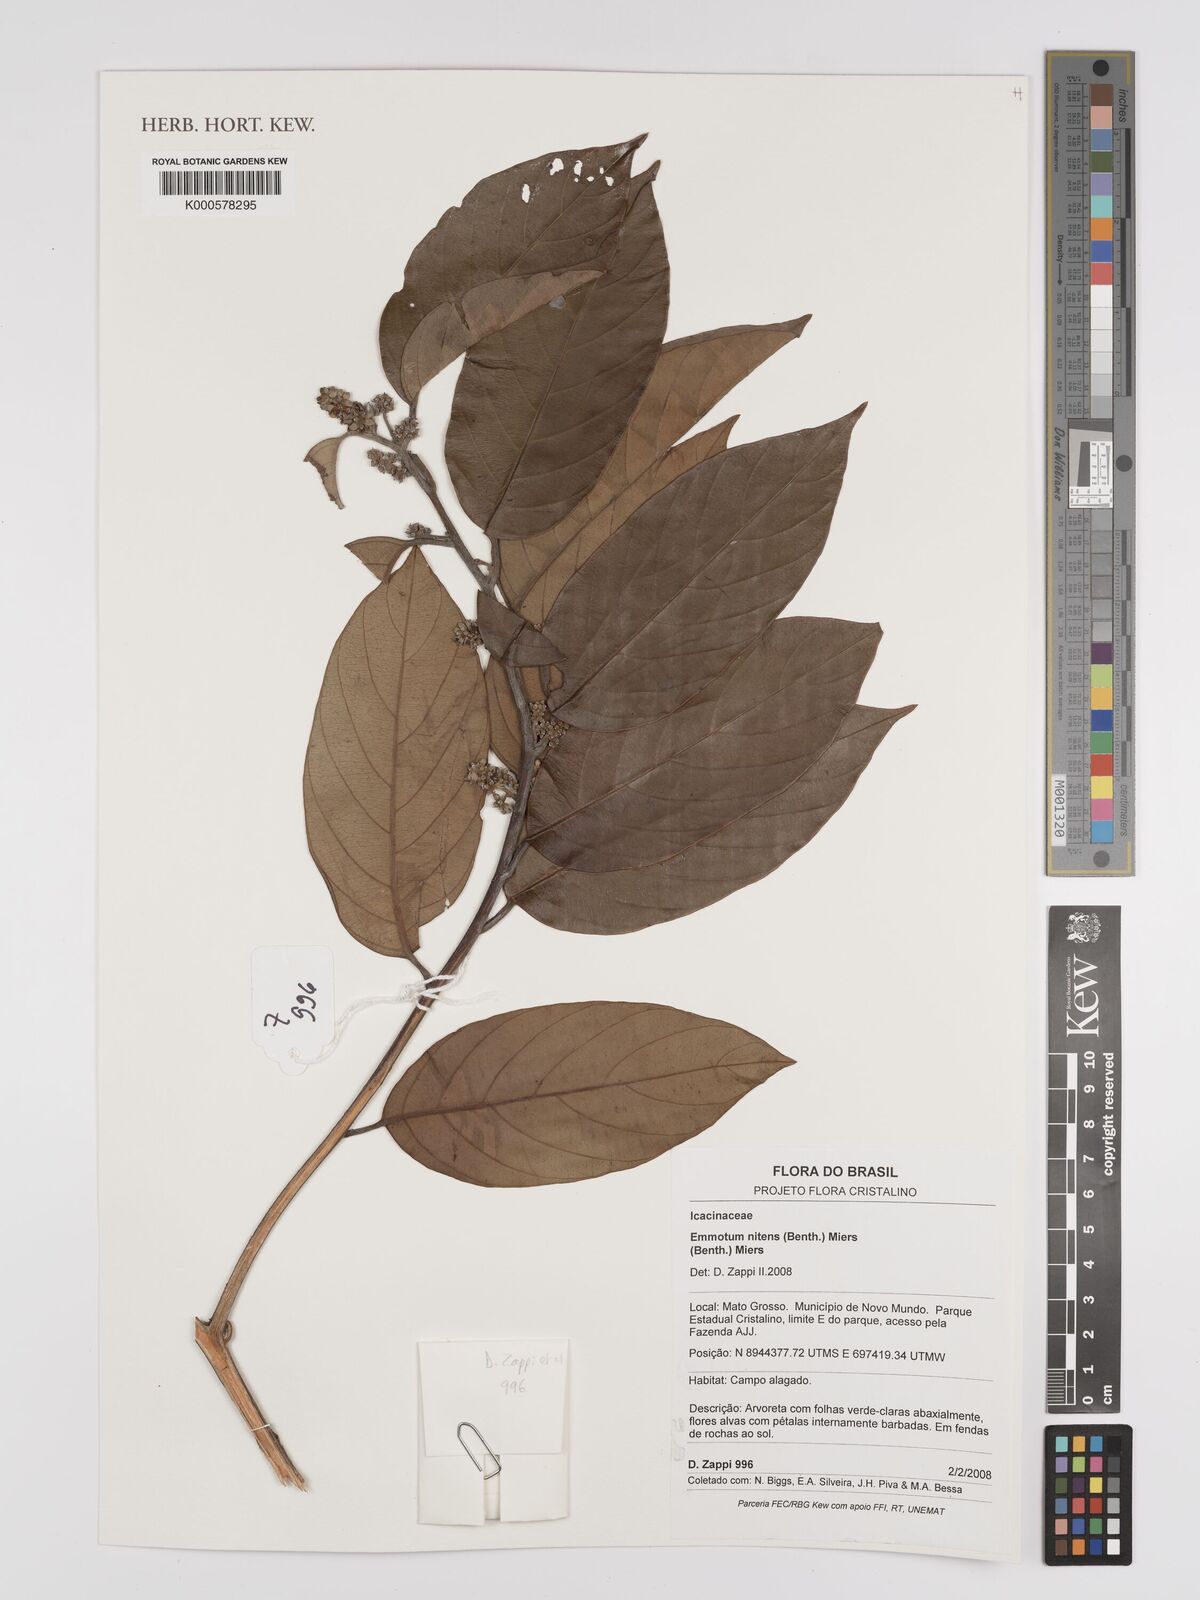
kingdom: Plantae
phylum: Tracheophyta
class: Magnoliopsida
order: Metteniusales
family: Metteniusaceae
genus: Emmotum
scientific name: Emmotum nitens
